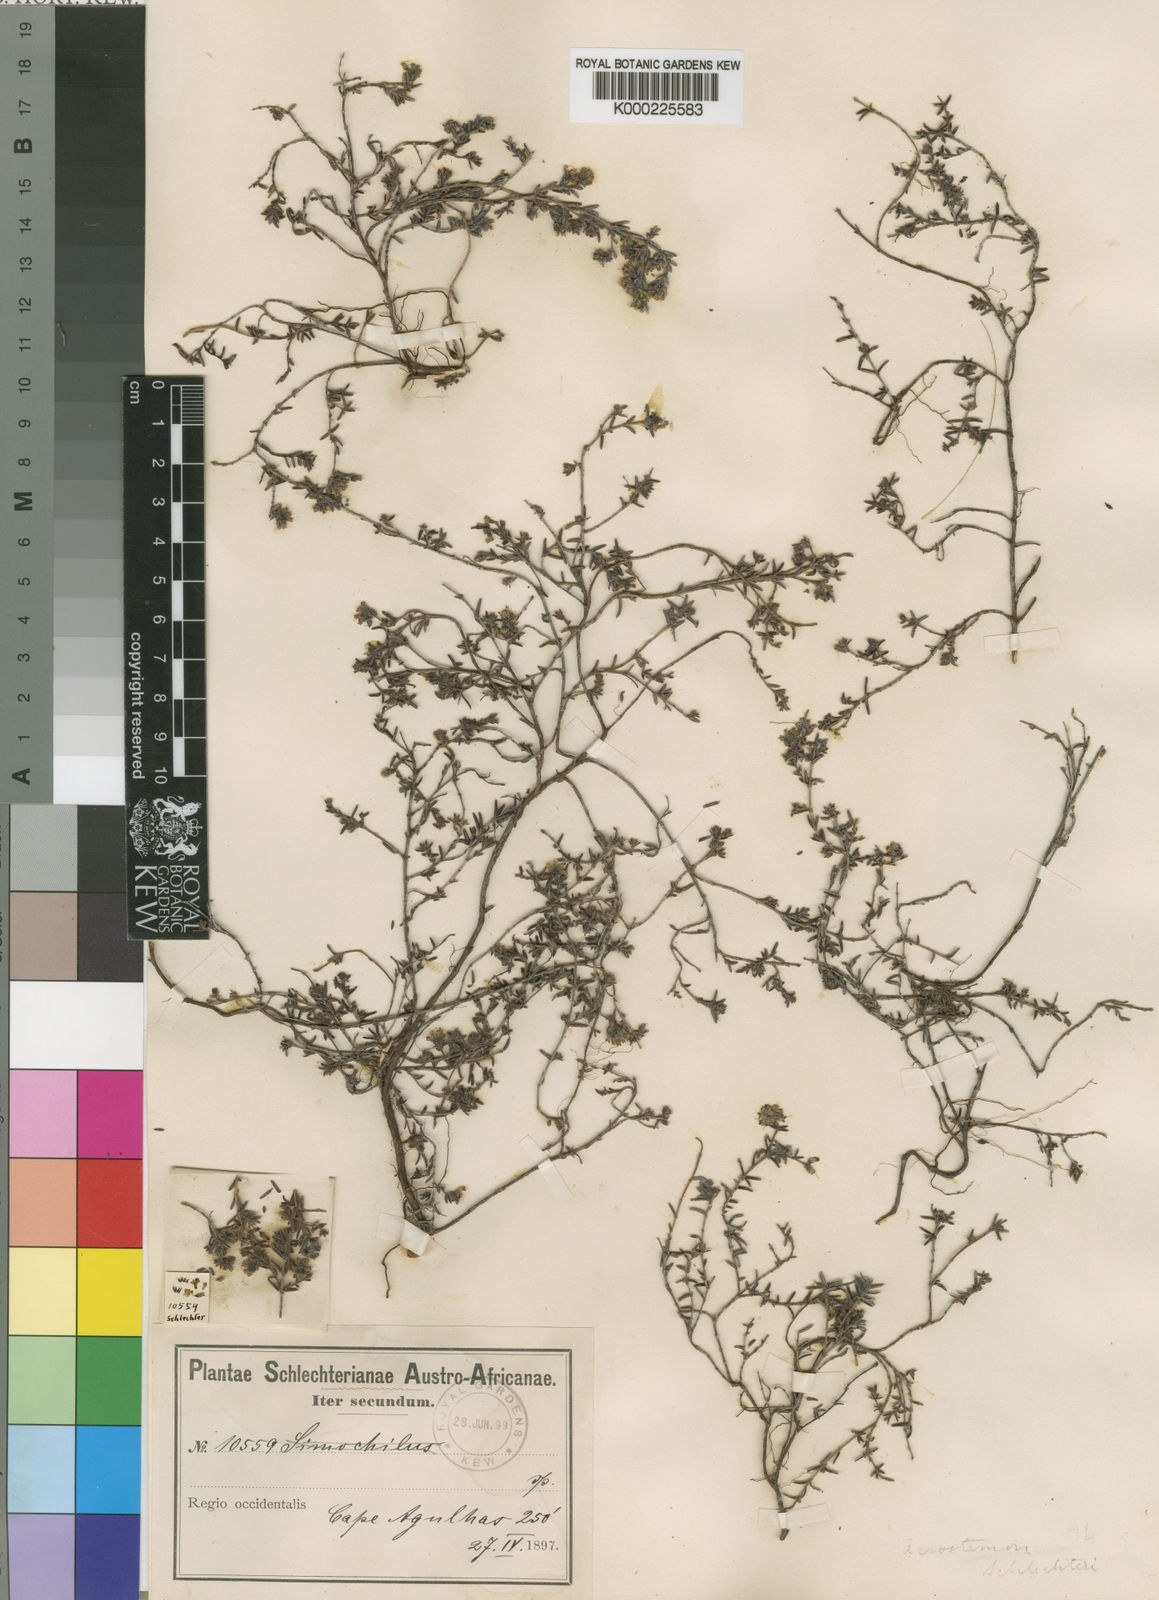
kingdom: Plantae
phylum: Tracheophyta
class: Magnoliopsida
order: Ericales
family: Ericaceae
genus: Erica
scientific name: Erica radicans
